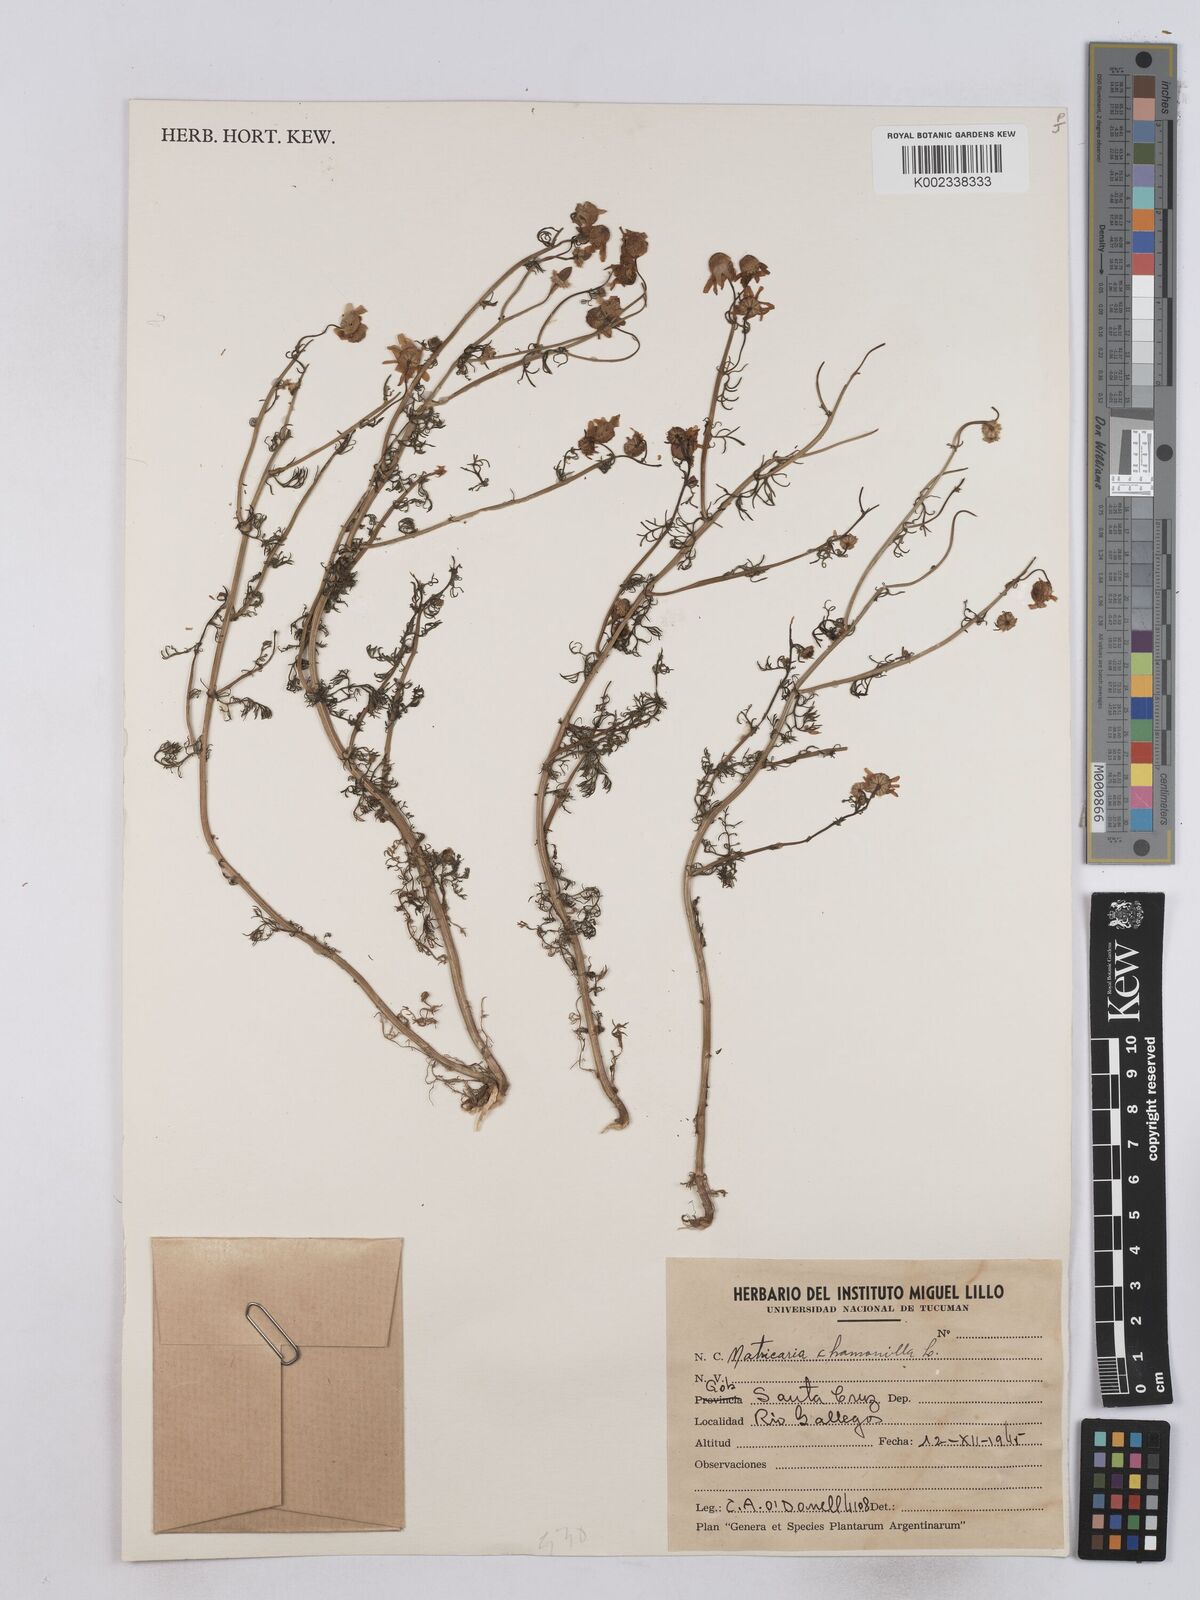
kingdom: Plantae
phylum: Tracheophyta
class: Magnoliopsida
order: Asterales
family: Asteraceae
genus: Matricaria
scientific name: Matricaria chamomilla
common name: Scented mayweed
